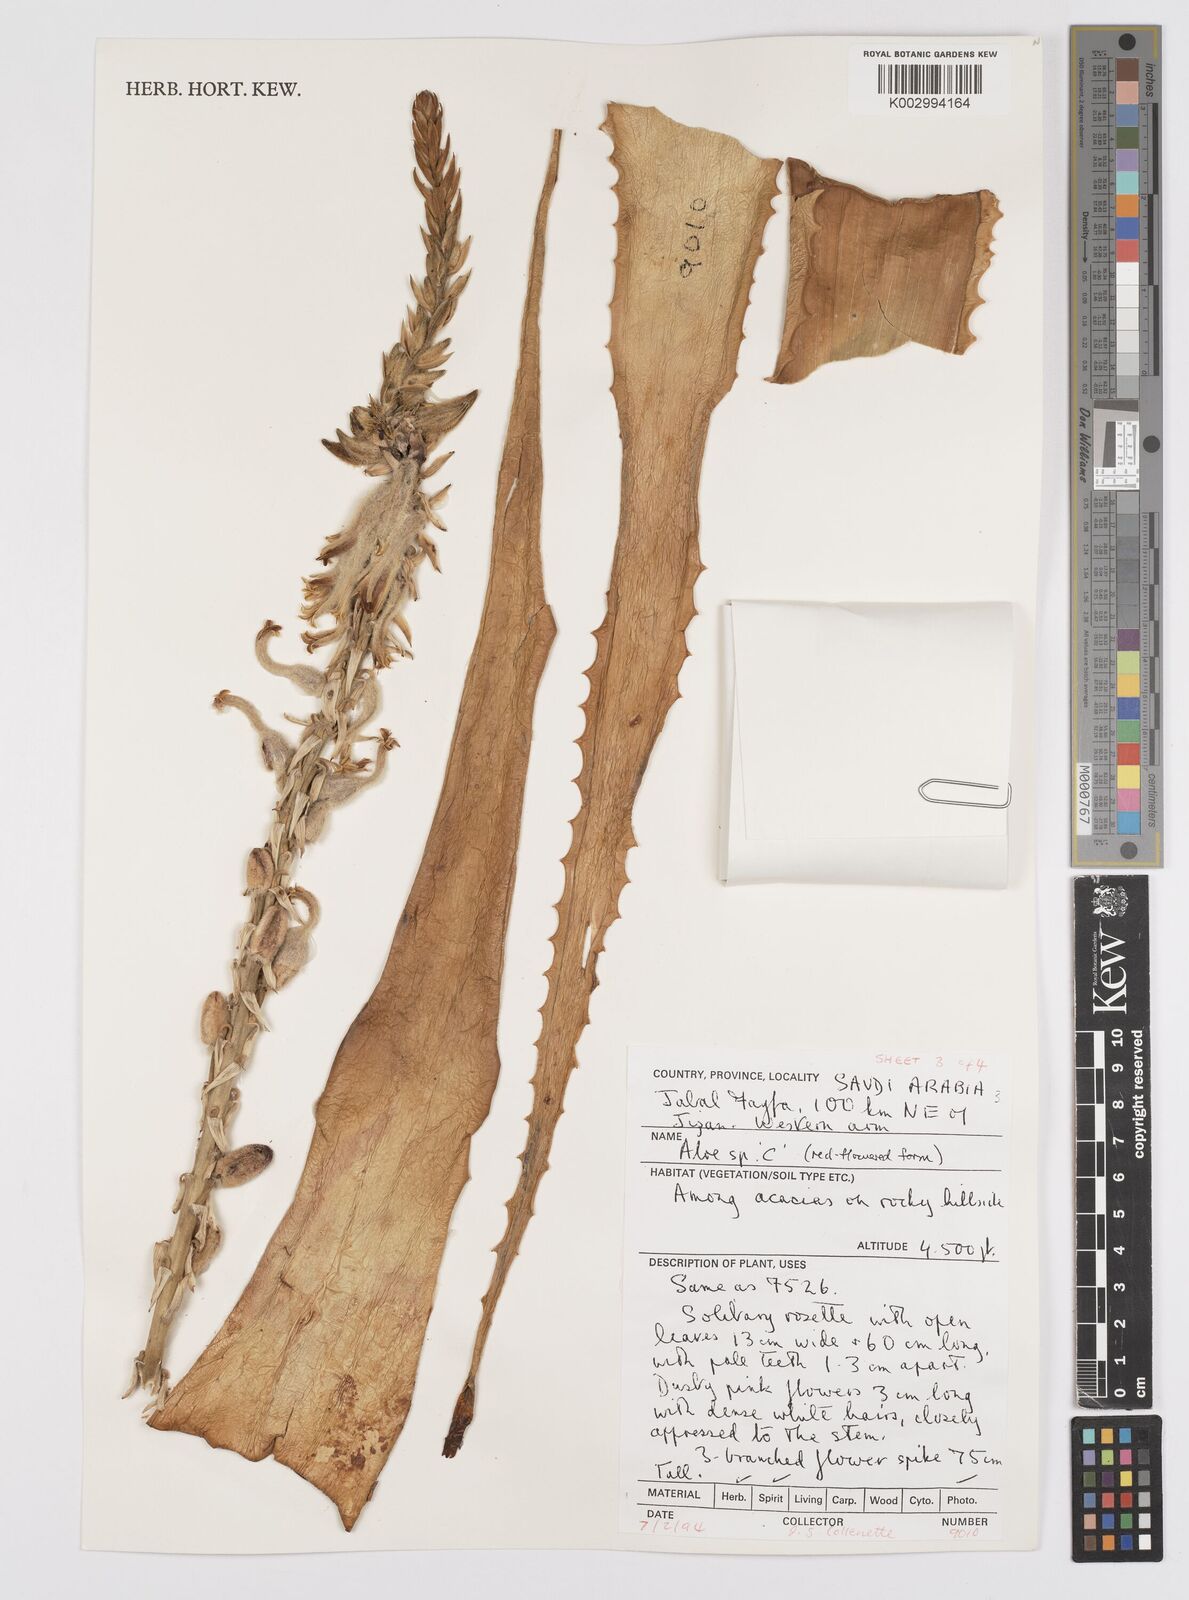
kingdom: Plantae
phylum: Tracheophyta
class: Liliopsida
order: Asparagales
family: Asphodelaceae
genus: Aloe
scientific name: Aloe parvicapsula
